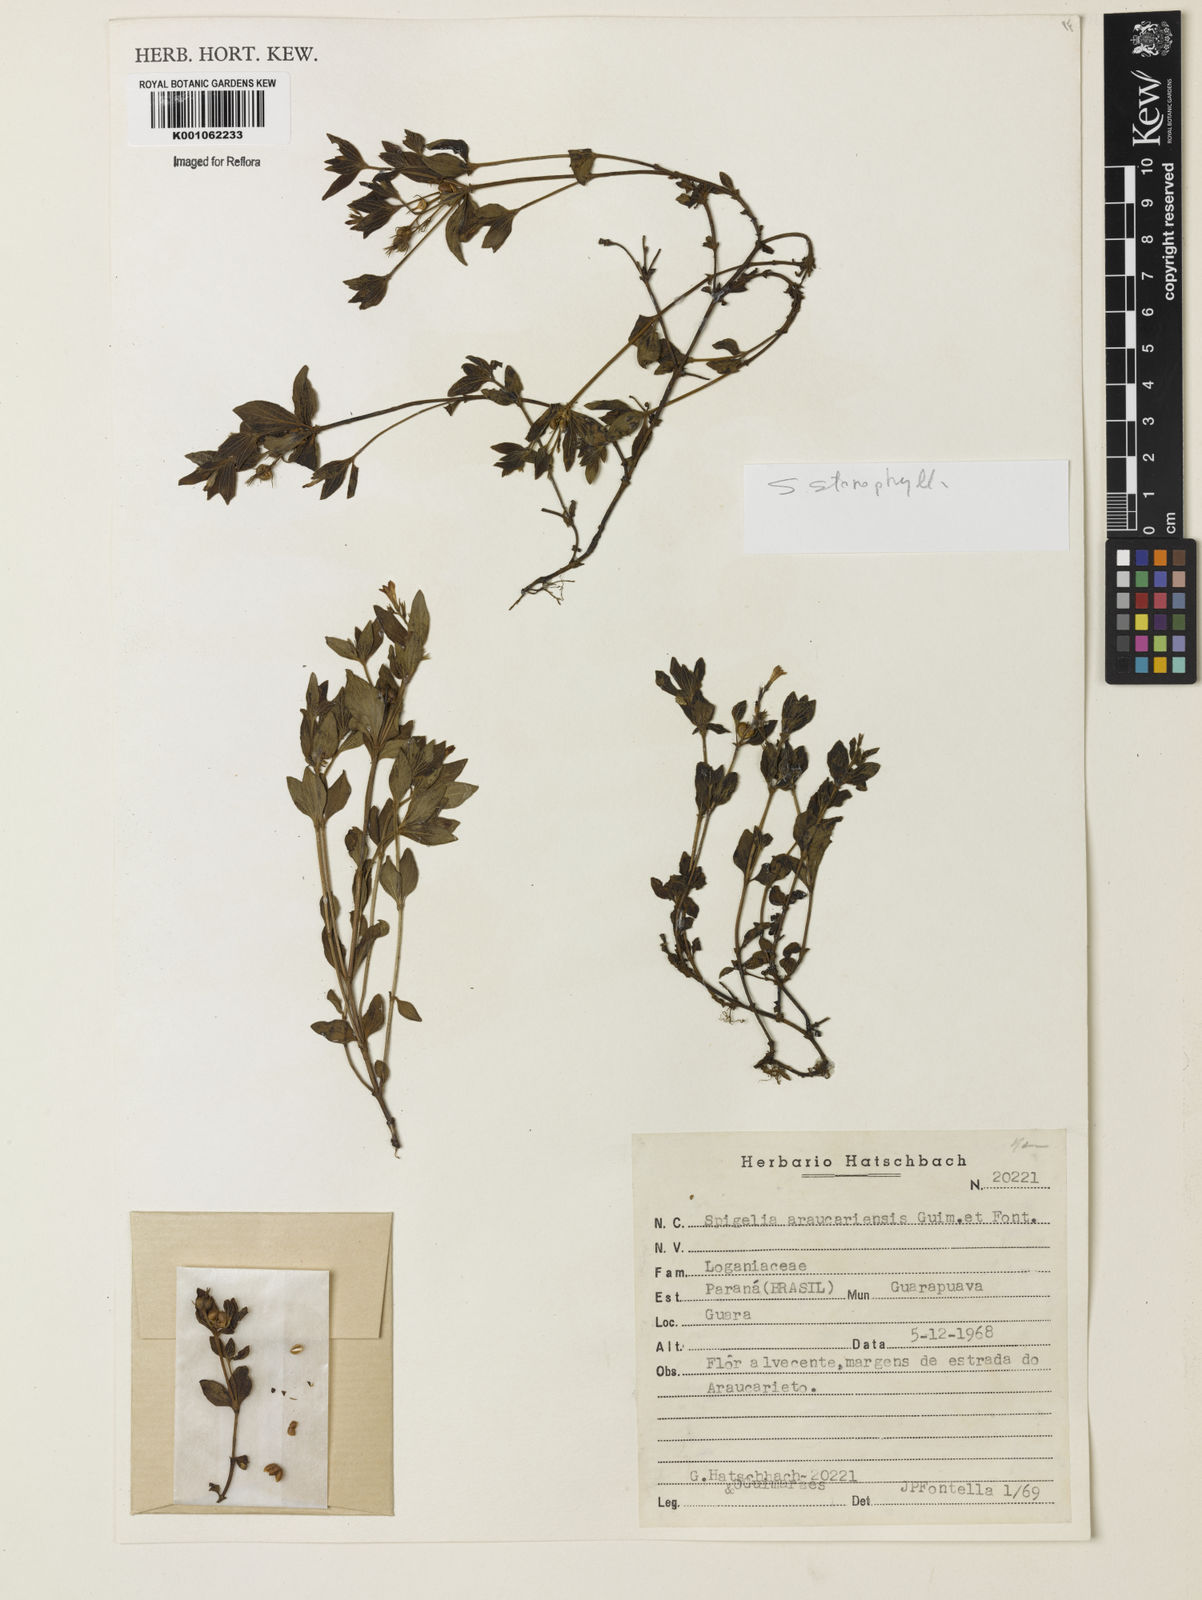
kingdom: Plantae
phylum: Tracheophyta
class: Magnoliopsida
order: Gentianales
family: Loganiaceae
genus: Spigelia
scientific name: Spigelia stenophylla
